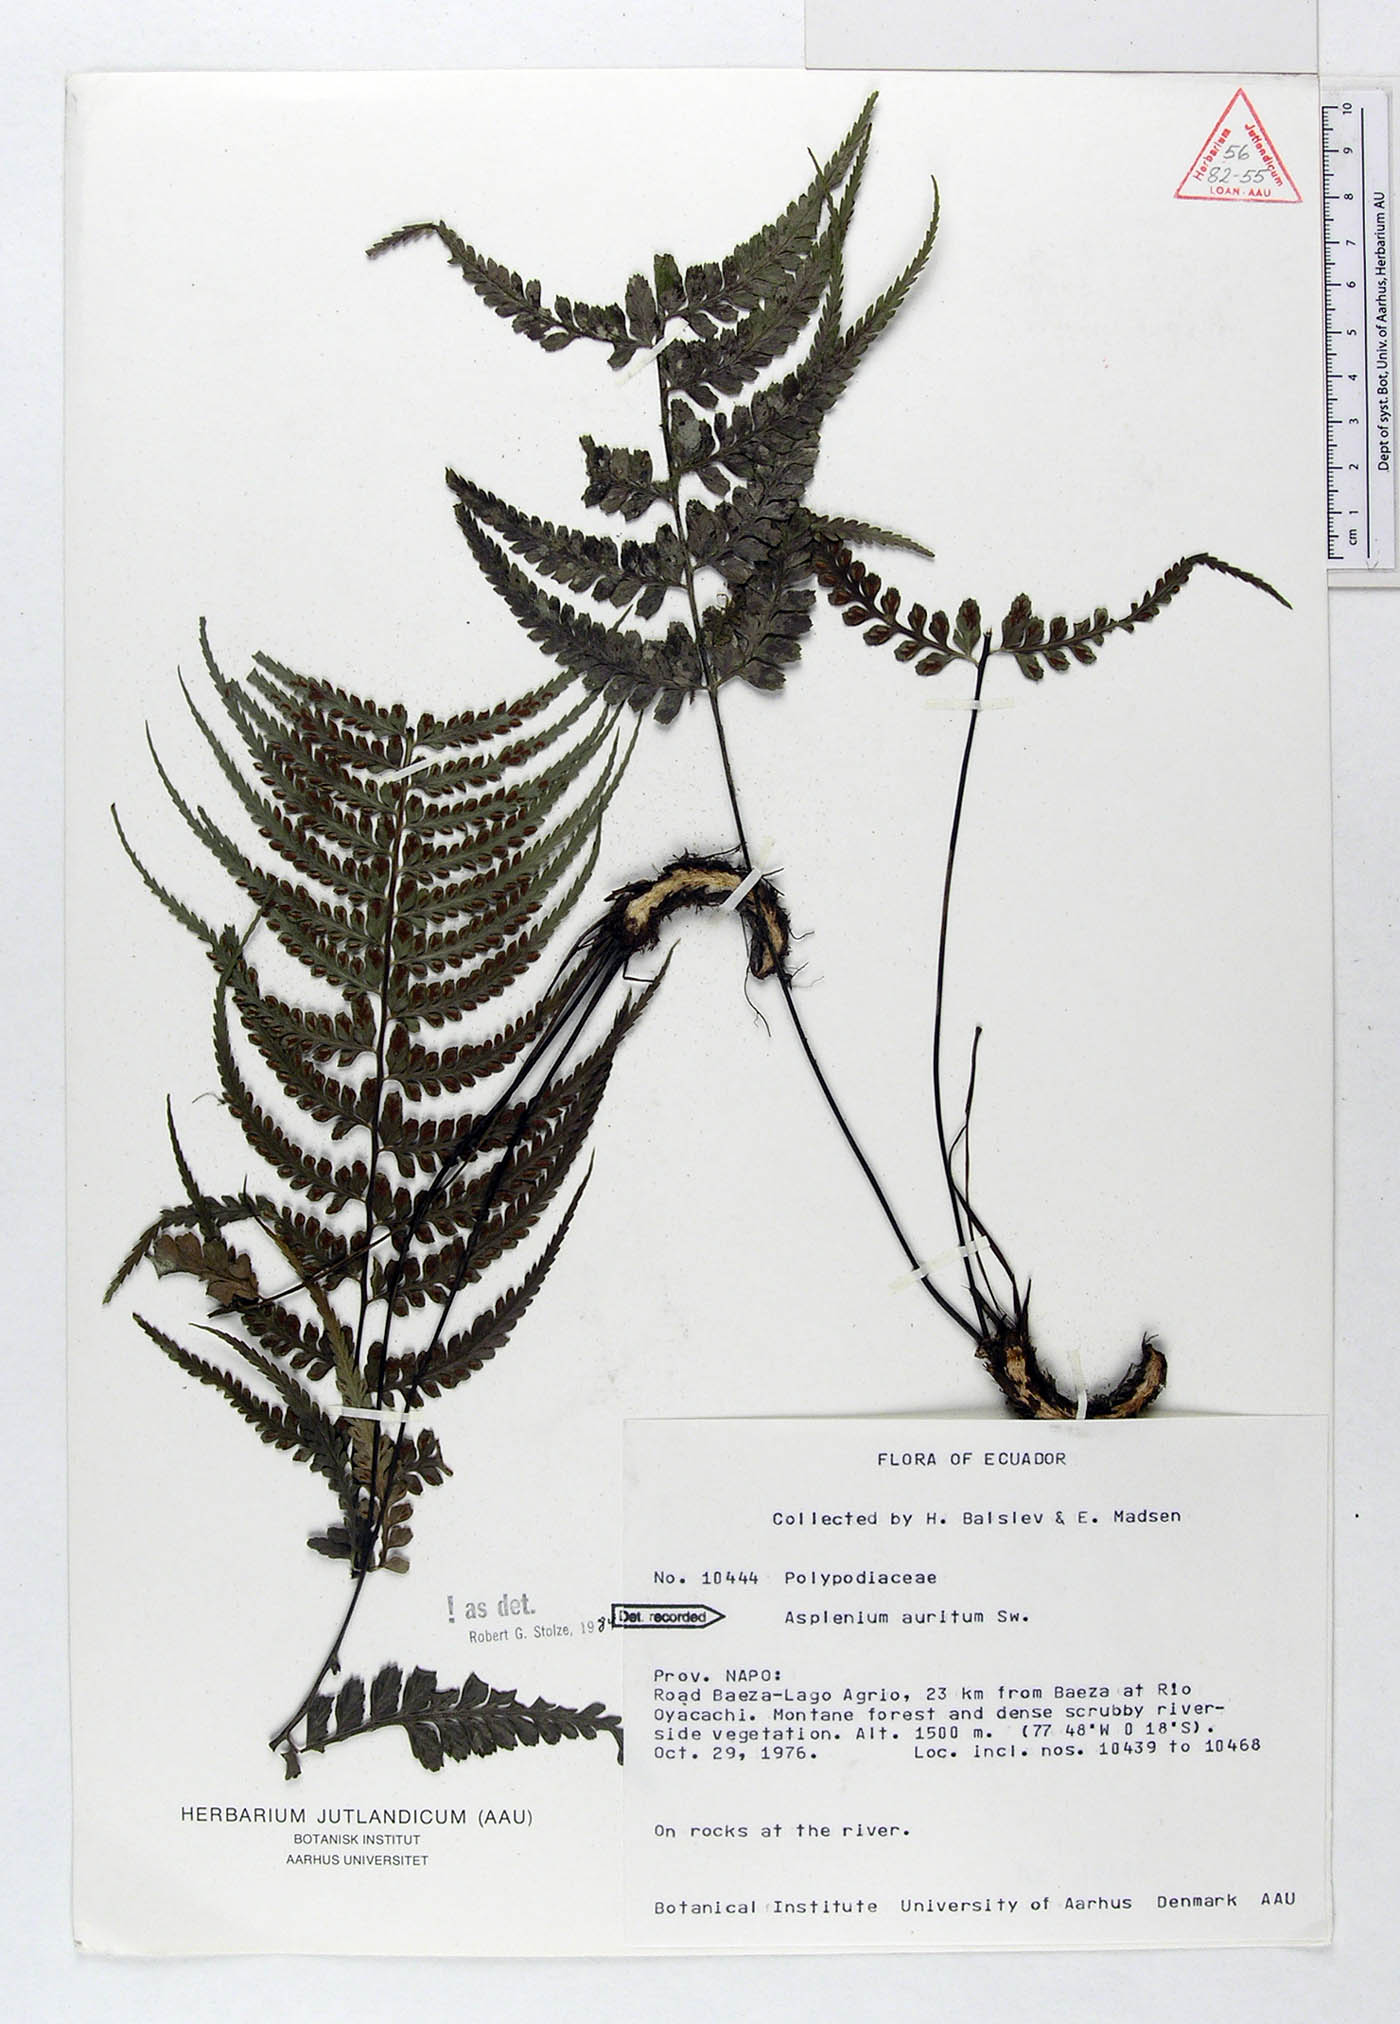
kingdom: Plantae
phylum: Tracheophyta
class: Polypodiopsida
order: Polypodiales
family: Aspleniaceae
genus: Asplenium
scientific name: Asplenium auritum
